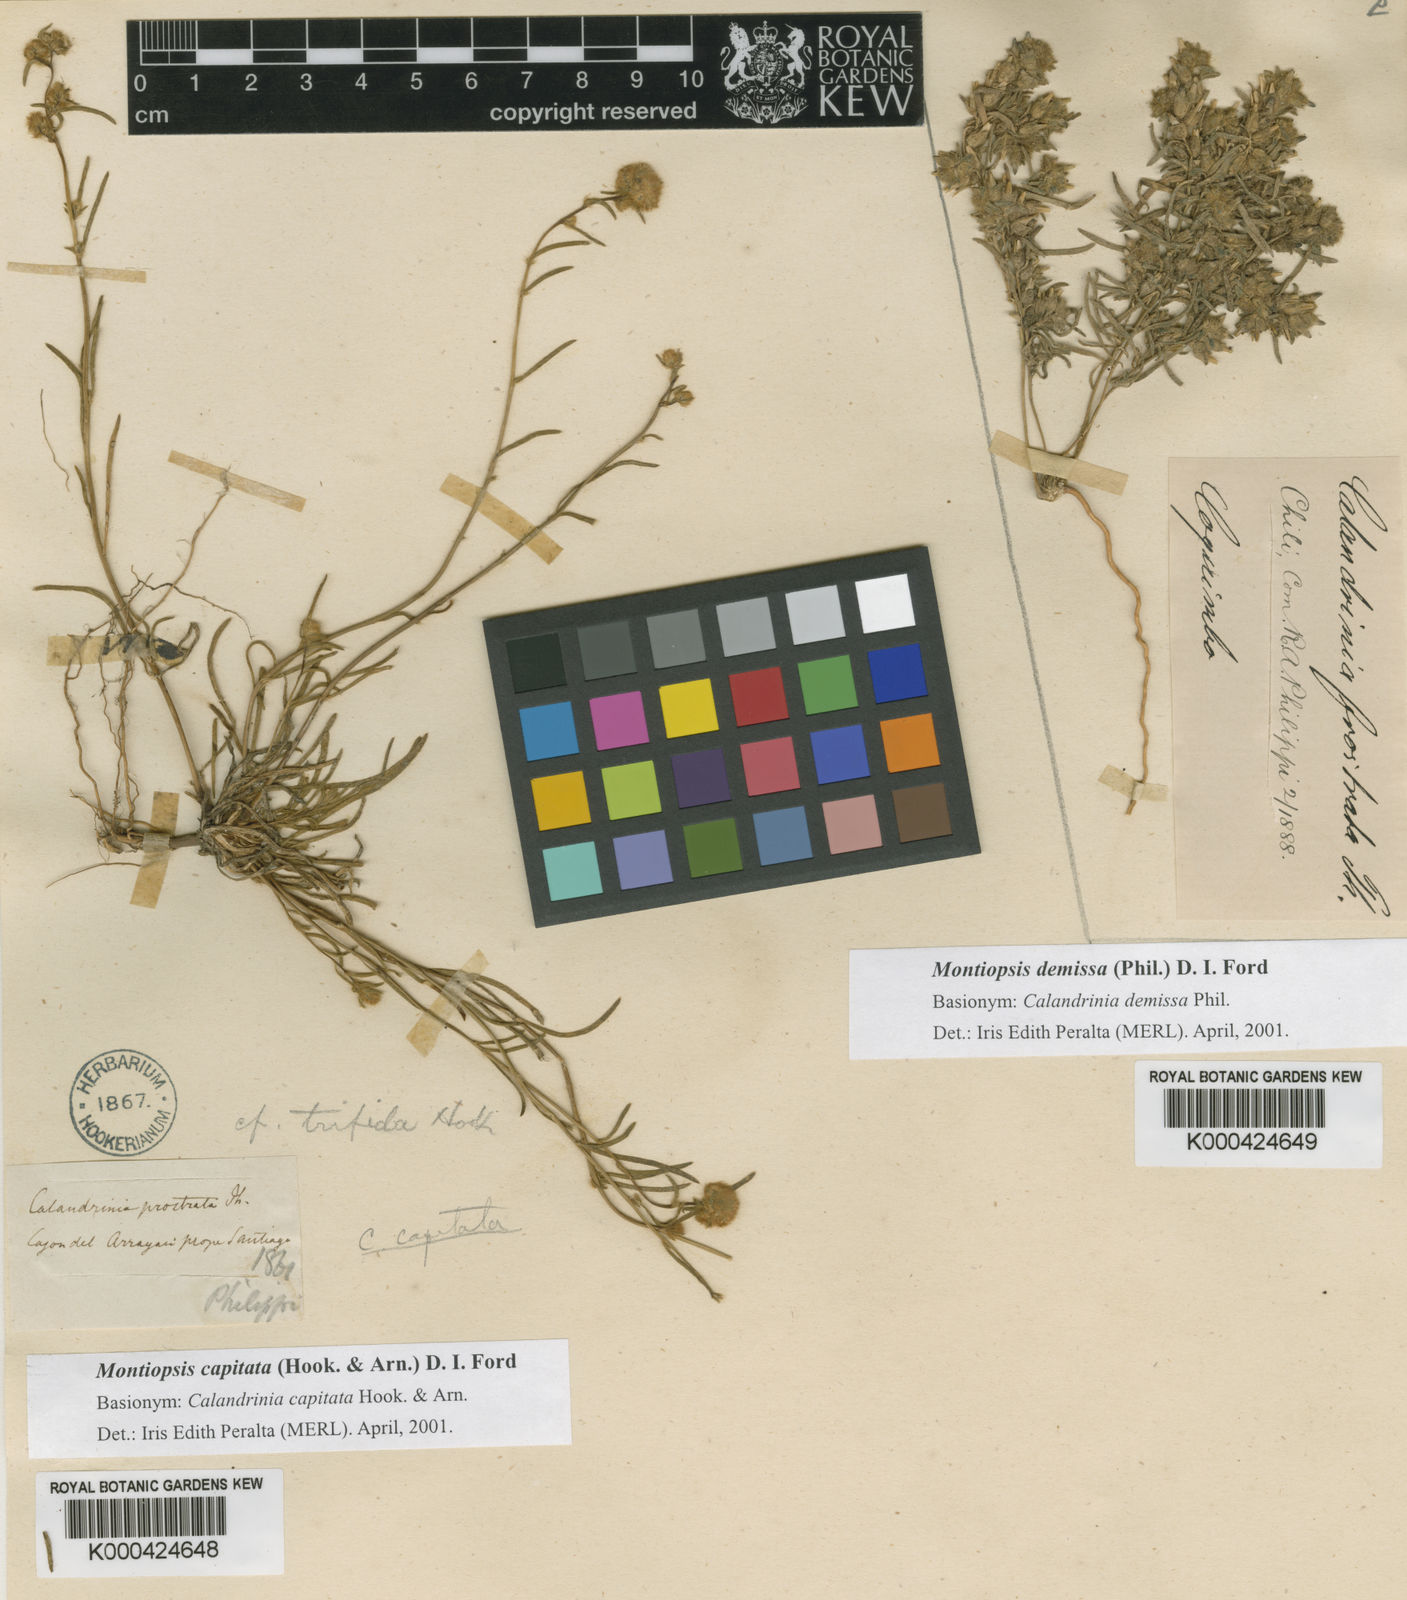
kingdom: Plantae
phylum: Tracheophyta
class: Magnoliopsida
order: Caryophyllales
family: Montiaceae
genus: Montiopsis
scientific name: Montiopsis capitata
